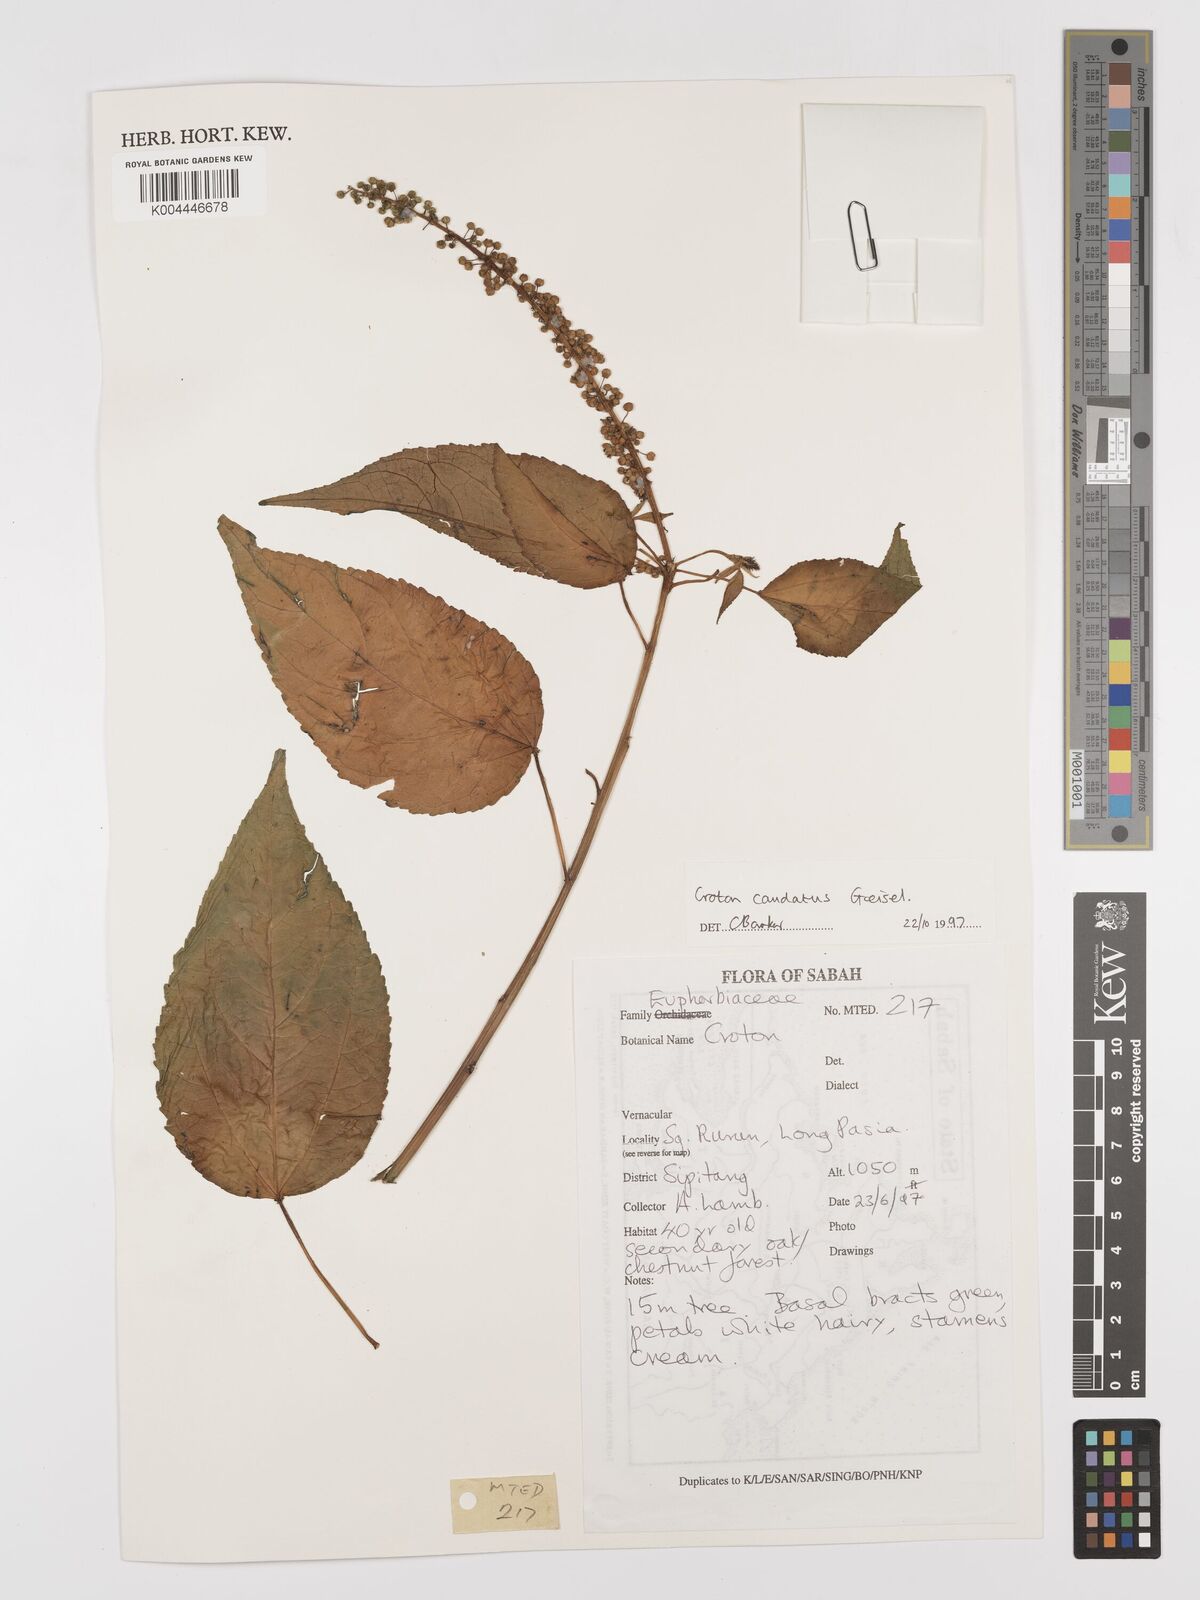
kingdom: Plantae
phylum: Tracheophyta
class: Magnoliopsida
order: Malpighiales
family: Euphorbiaceae
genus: Croton
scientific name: Croton caudatus
